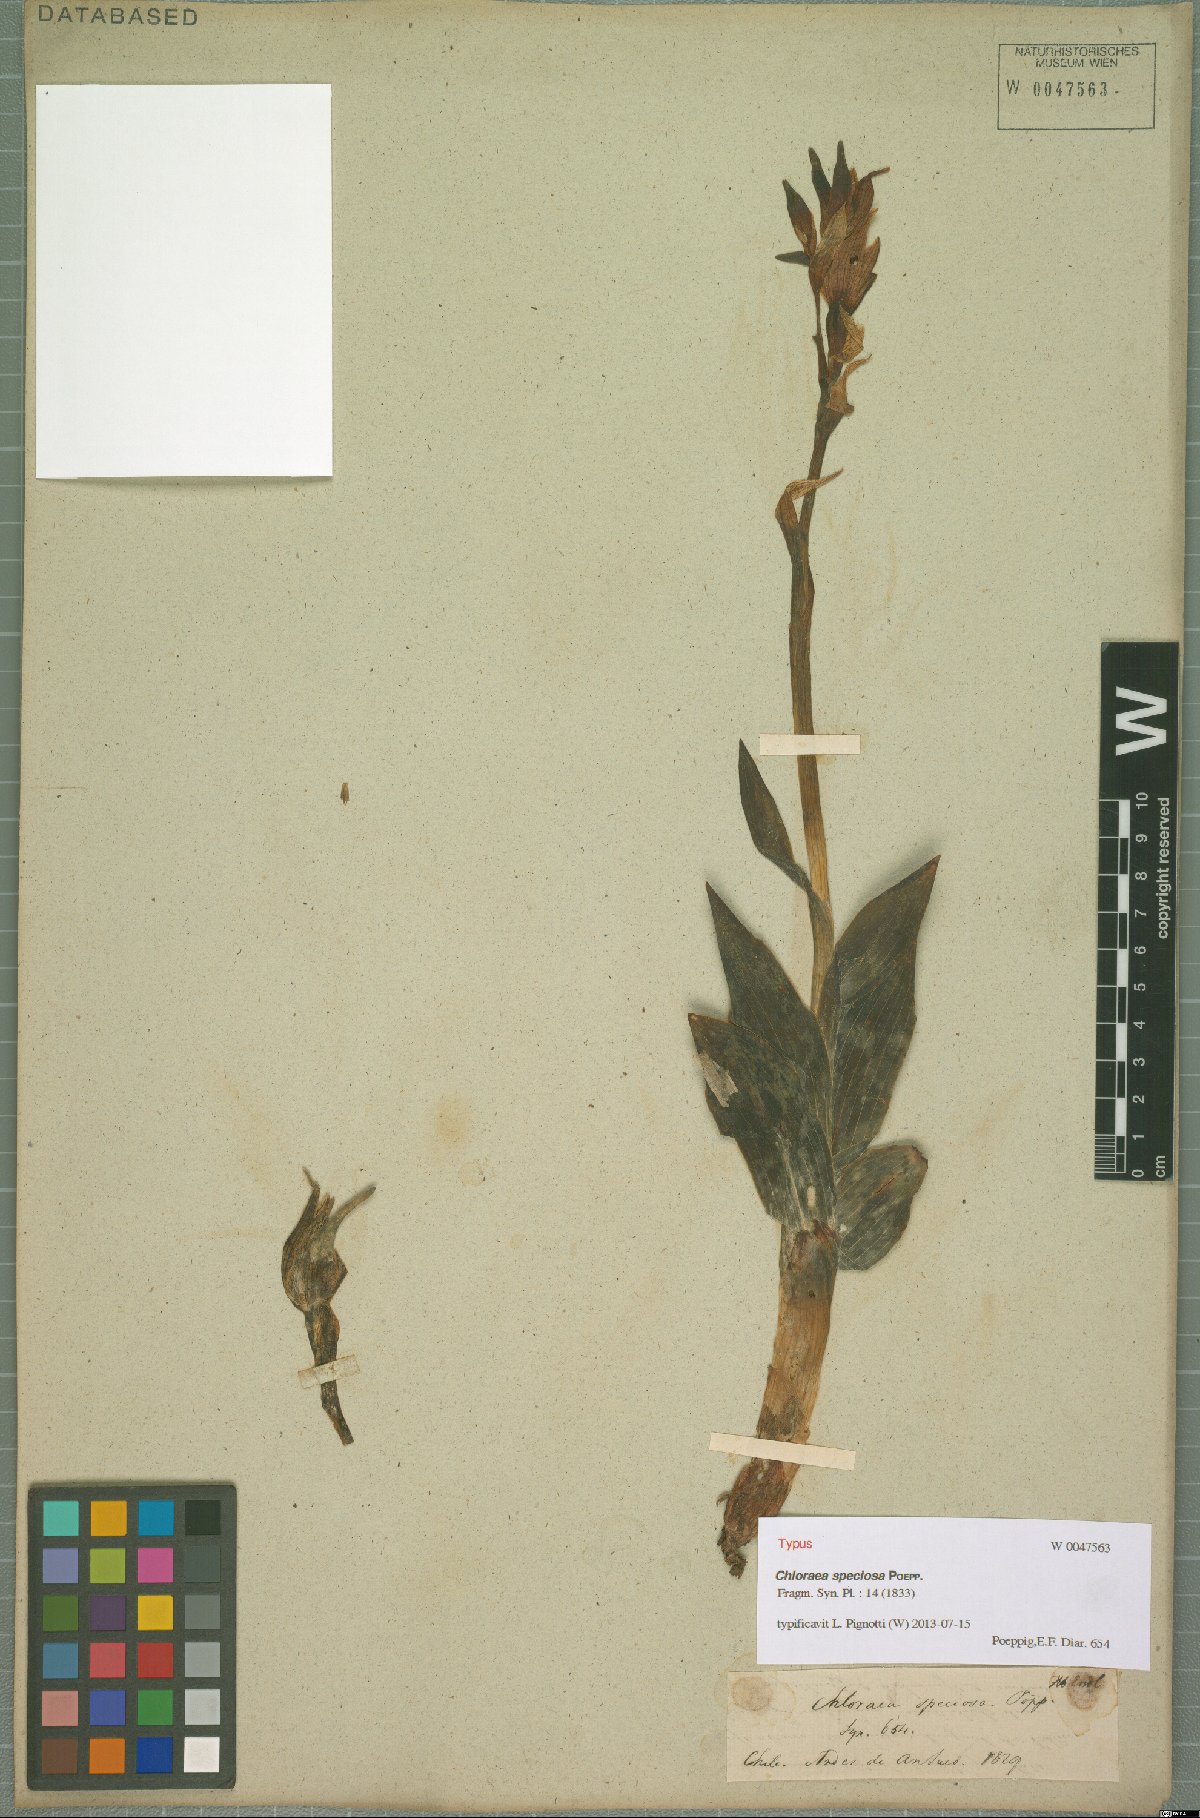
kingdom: Plantae
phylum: Tracheophyta
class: Liliopsida
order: Asparagales
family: Orchidaceae
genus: Chloraea
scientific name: Chloraea speciosa
